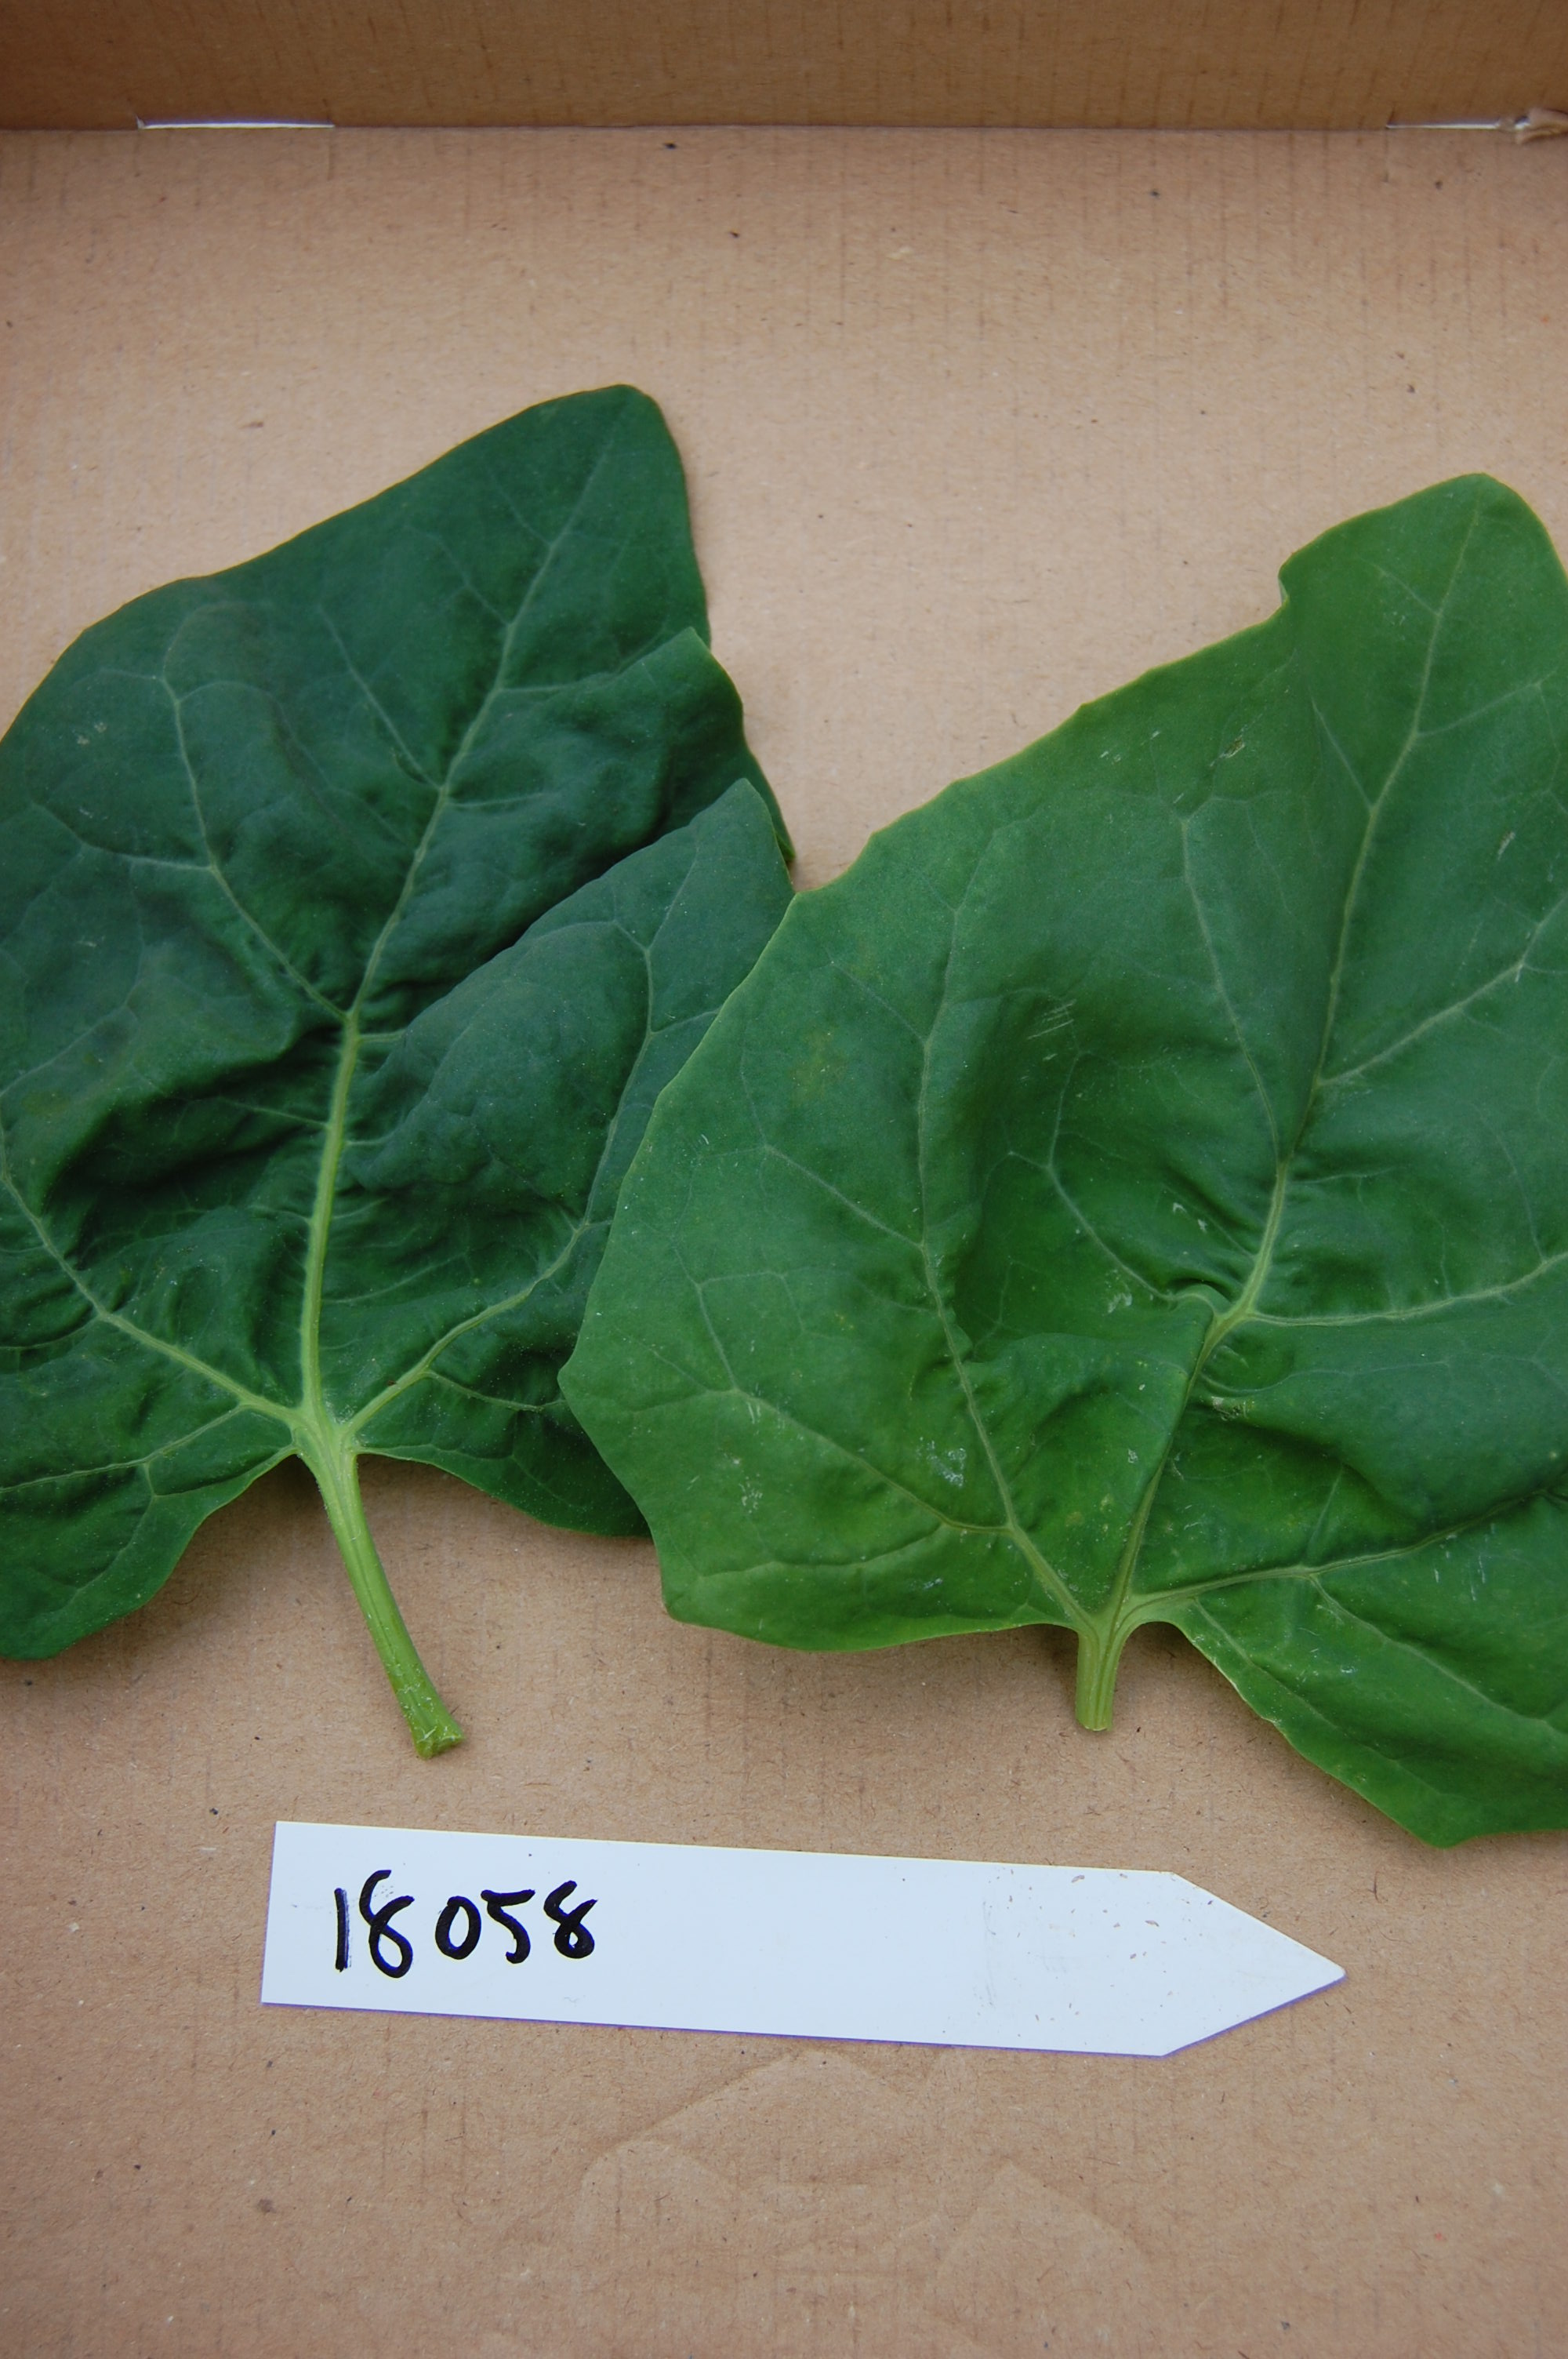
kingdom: Plantae
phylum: Tracheophyta
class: Magnoliopsida
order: Caryophyllales
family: Amaranthaceae
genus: Atriplex
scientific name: Atriplex hortensis
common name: Garden orache
